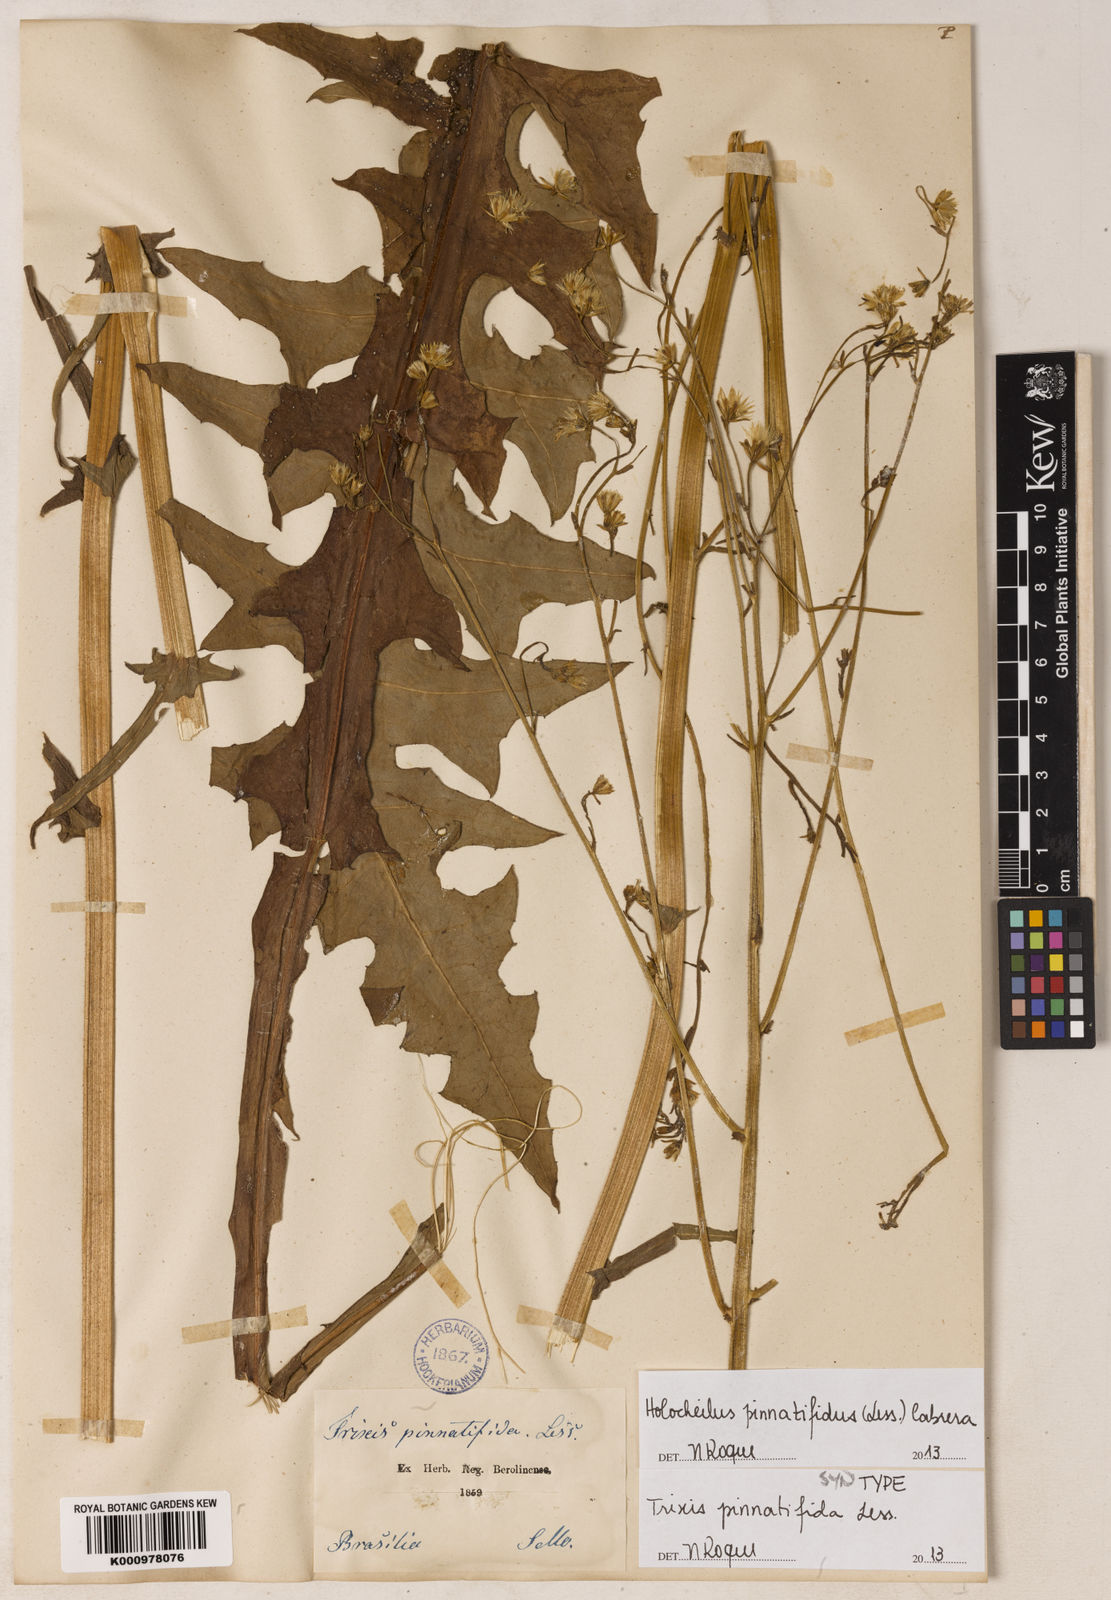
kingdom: Plantae
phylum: Tracheophyta
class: Magnoliopsida
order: Asterales
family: Asteraceae
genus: Holocheilus
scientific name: Holocheilus pinnatifidus
